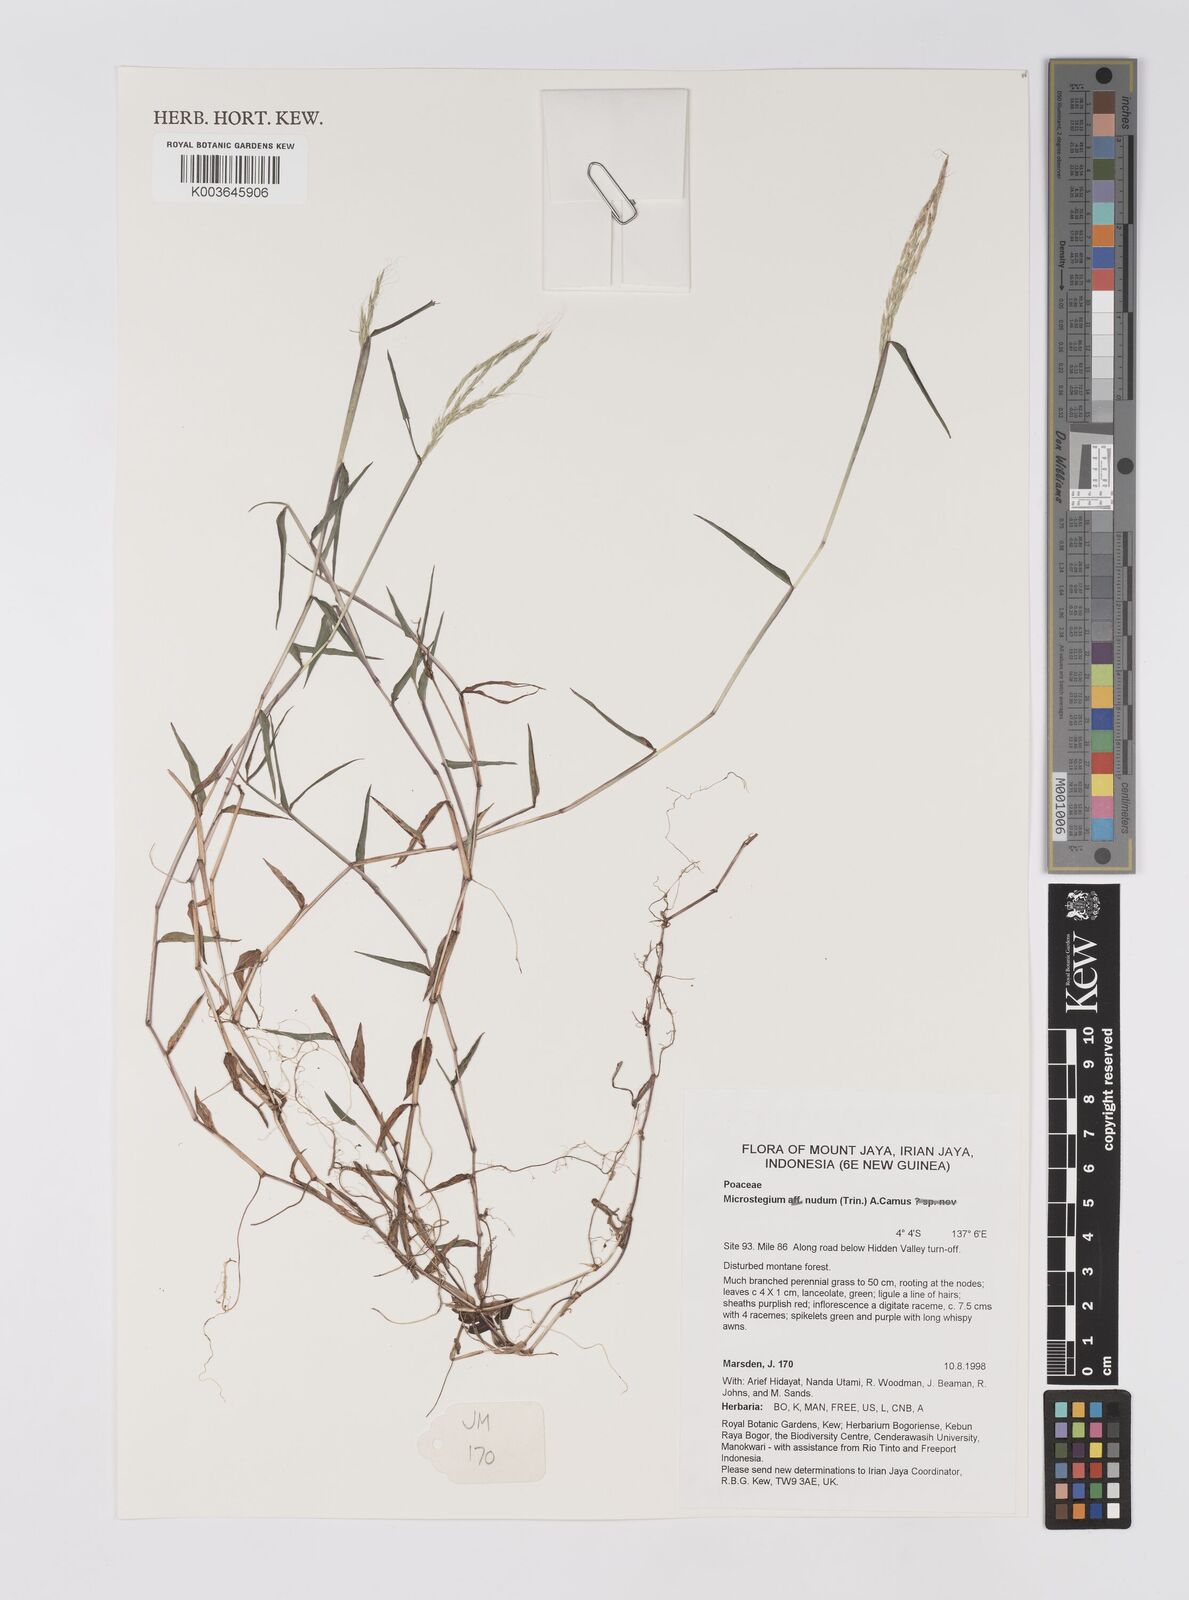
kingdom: Plantae
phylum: Tracheophyta
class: Liliopsida
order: Poales
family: Poaceae
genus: Microstegium
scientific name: Microstegium nudum
